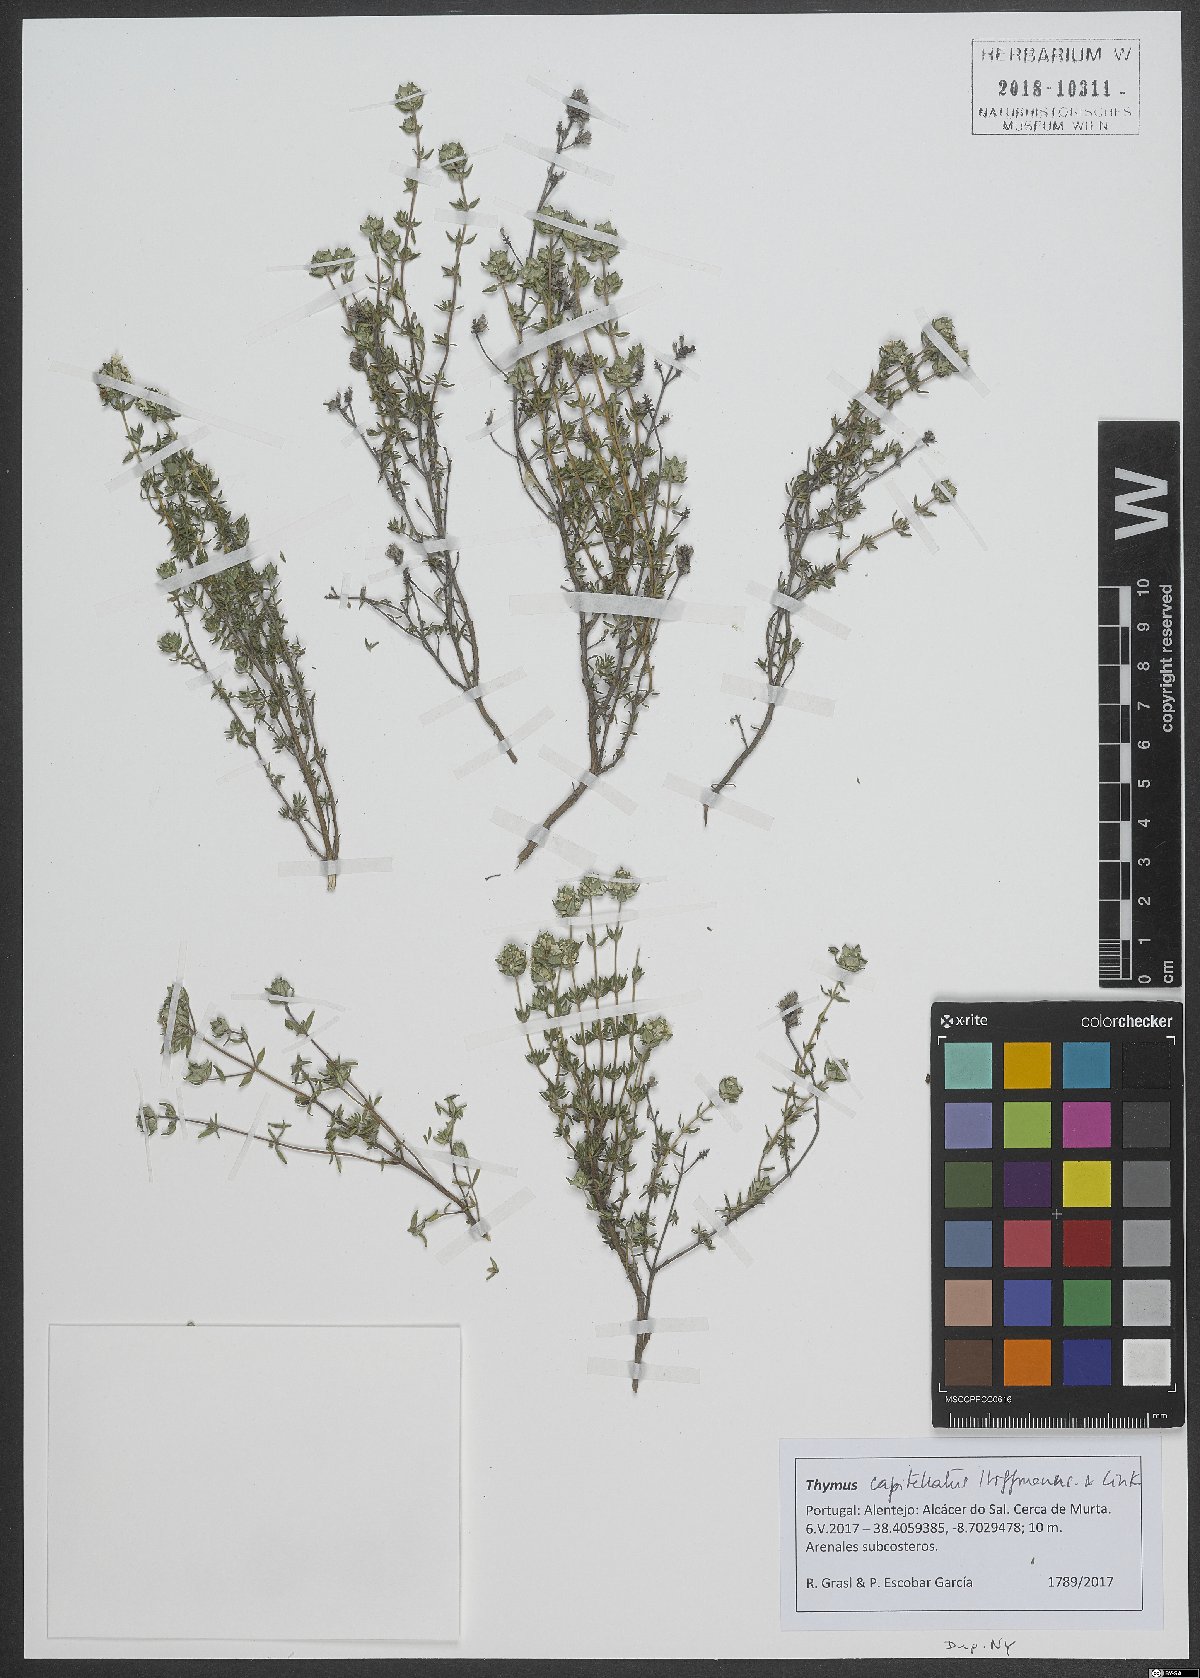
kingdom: Plantae
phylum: Tracheophyta
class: Magnoliopsida
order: Lamiales
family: Lamiaceae
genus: Thymus
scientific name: Thymus capitellatus
